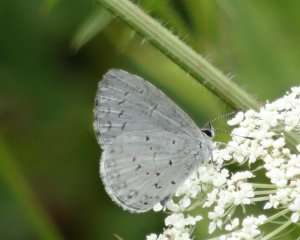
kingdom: Animalia
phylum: Arthropoda
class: Insecta
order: Lepidoptera
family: Lycaenidae
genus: Cyaniris
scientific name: Cyaniris neglecta
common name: Summer Azure
